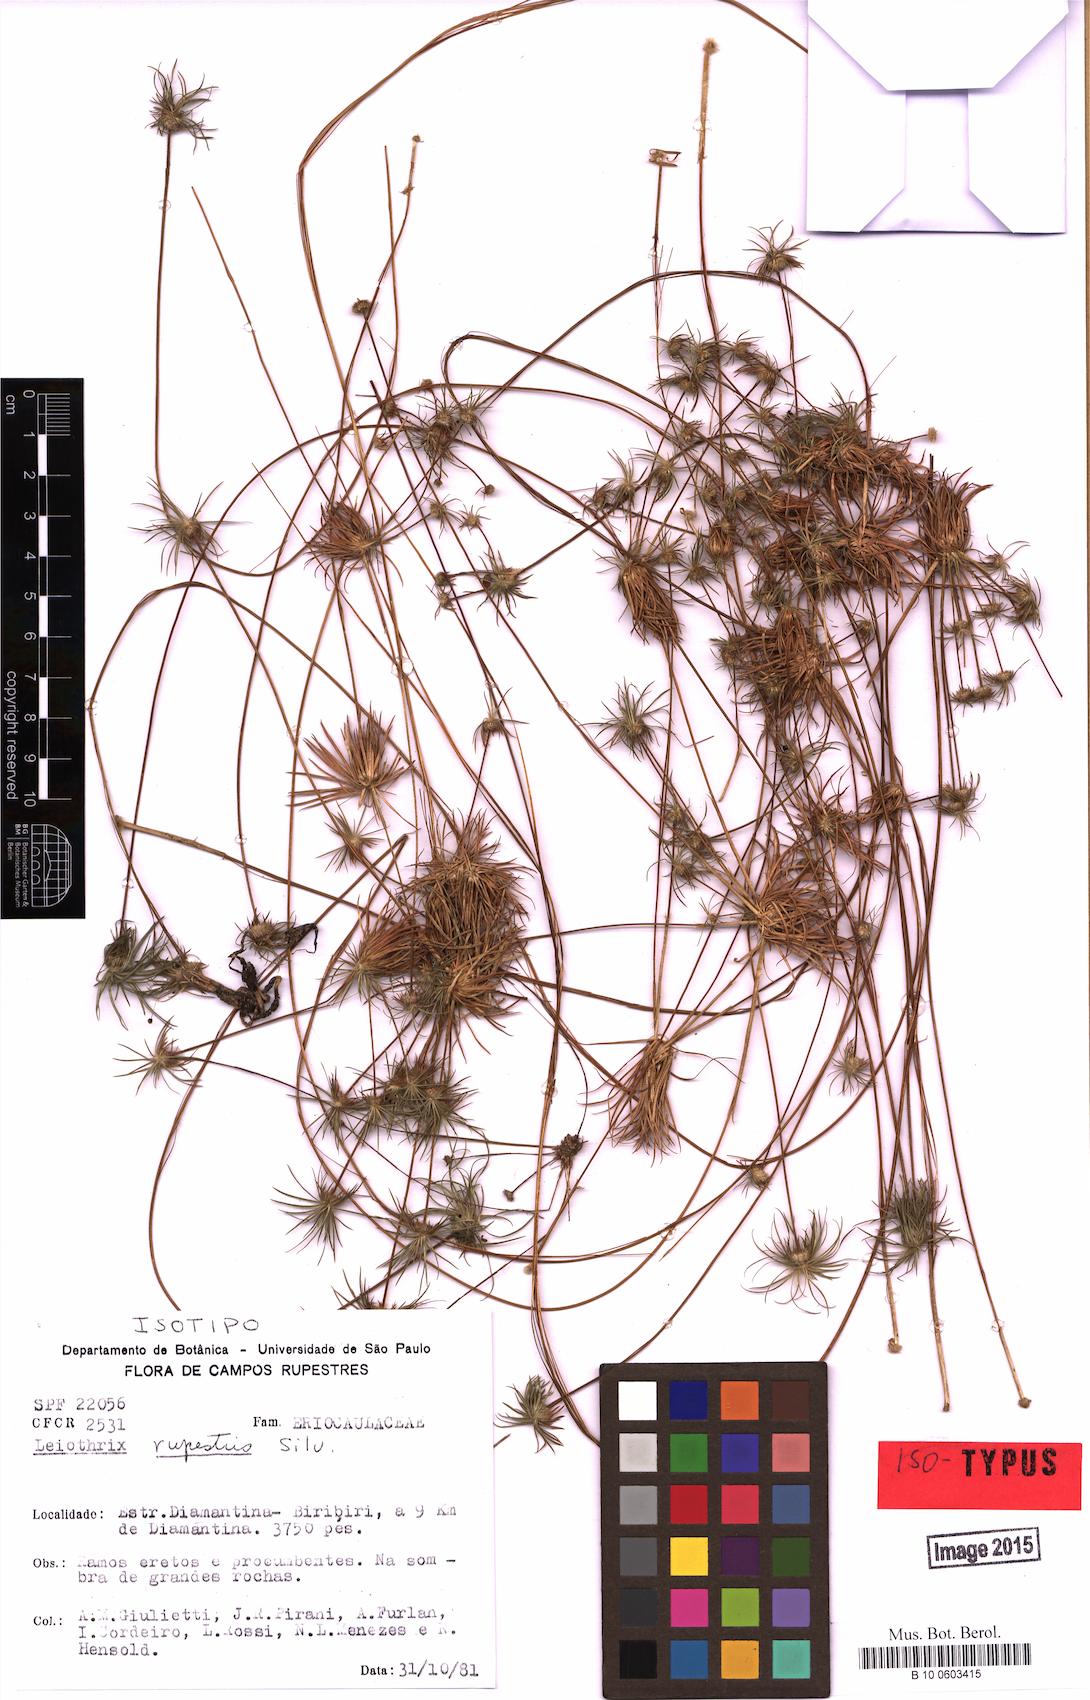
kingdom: Plantae
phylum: Tracheophyta
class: Liliopsida
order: Poales
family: Eriocaulaceae
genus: Leiothrix
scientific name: Leiothrix rupestris
